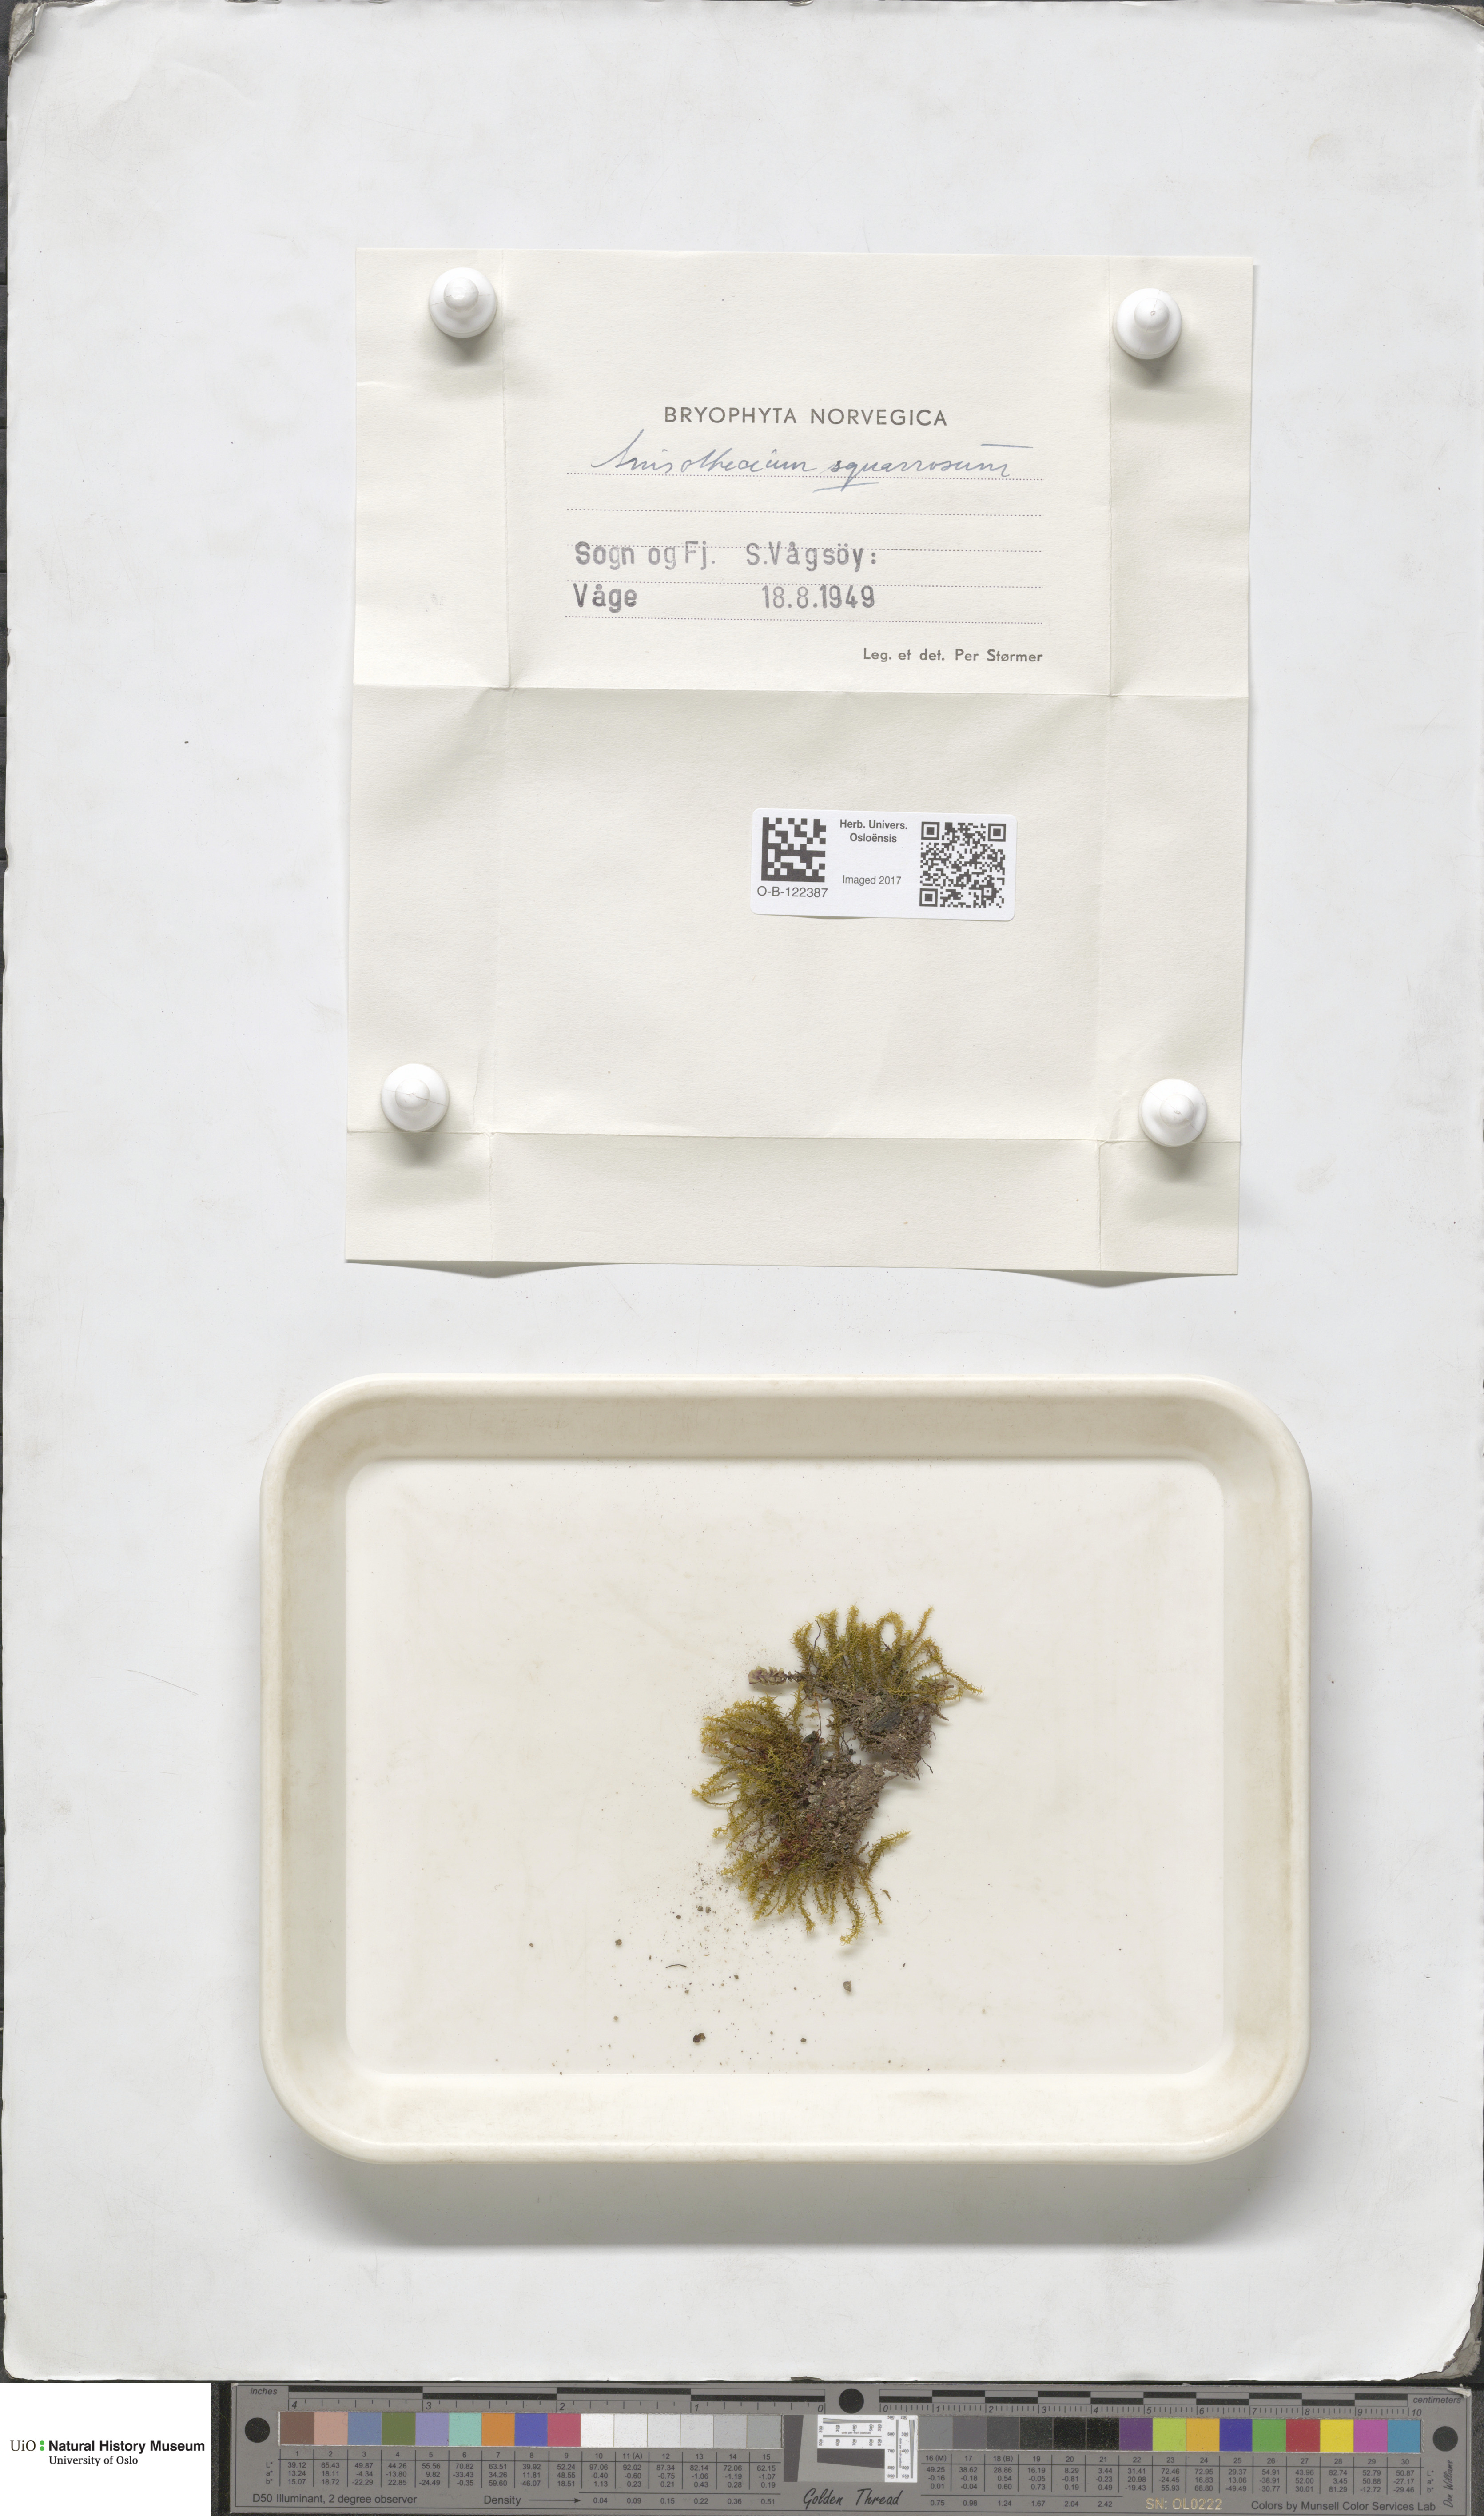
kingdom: Plantae
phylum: Bryophyta
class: Bryopsida
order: Dicranales
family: Aongstroemiaceae
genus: Diobelonella
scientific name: Diobelonella palustris
